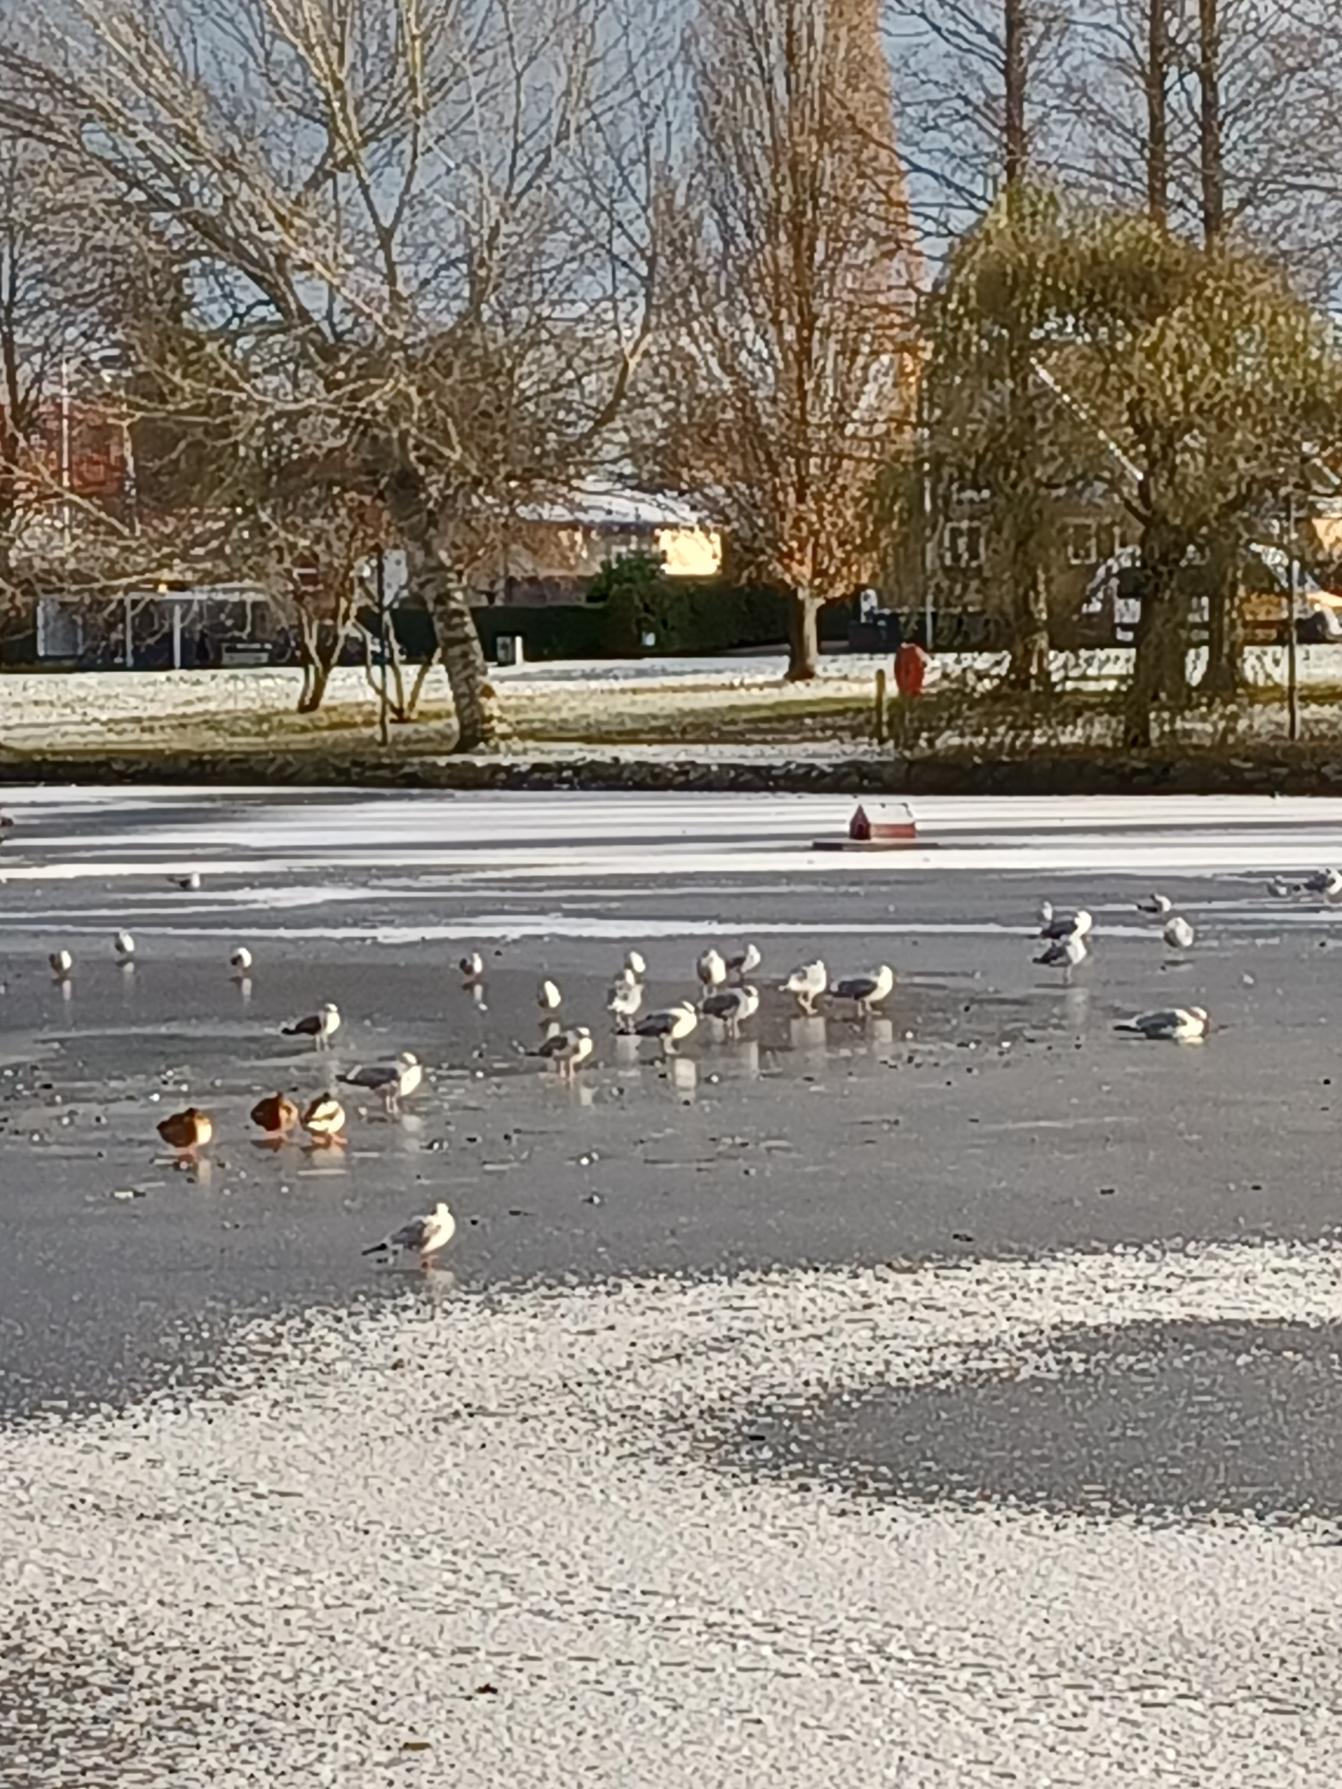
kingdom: Animalia
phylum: Chordata
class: Aves
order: Charadriiformes
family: Laridae
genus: Chroicocephalus
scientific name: Chroicocephalus ridibundus
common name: Hættemåge
